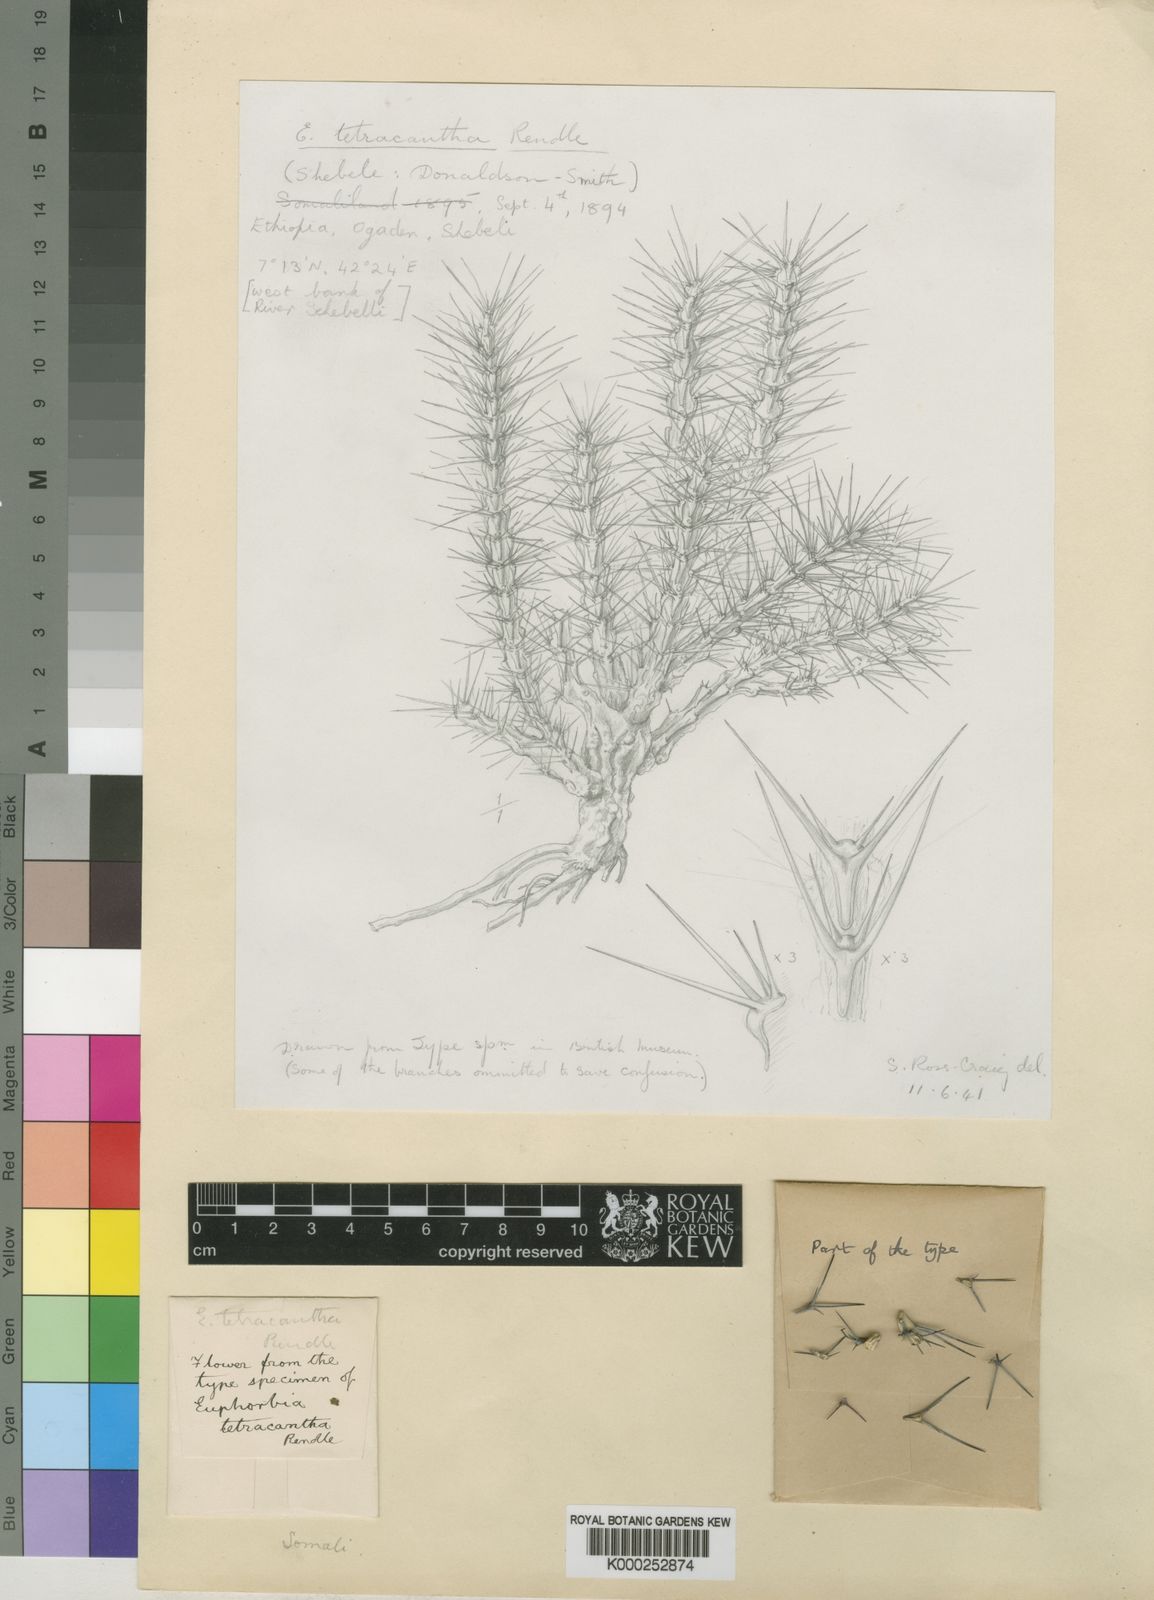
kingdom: Plantae
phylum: Tracheophyta
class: Magnoliopsida
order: Malpighiales
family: Euphorbiaceae
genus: Euphorbia
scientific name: Euphorbia tetracantha
